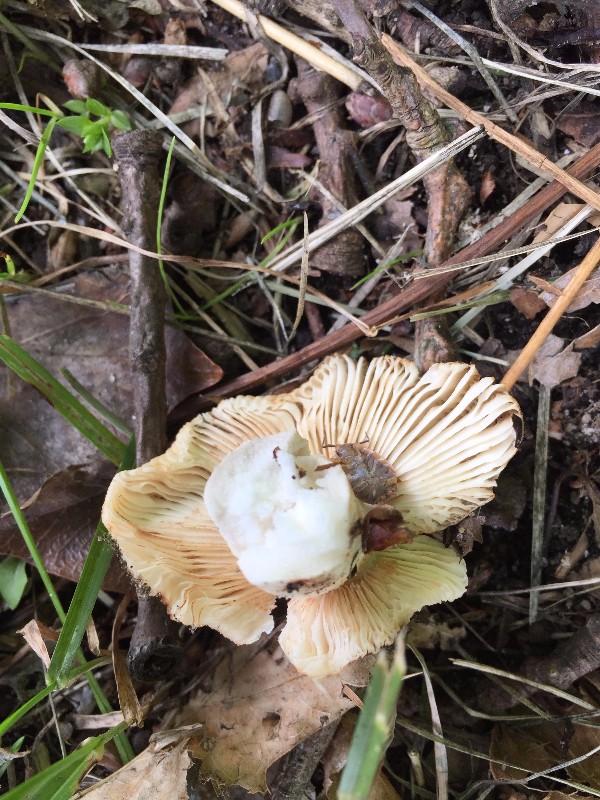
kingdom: Fungi
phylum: Basidiomycota
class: Agaricomycetes
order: Russulales
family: Russulaceae
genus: Russula
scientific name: Russula recondita
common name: mild kam-skørhat
